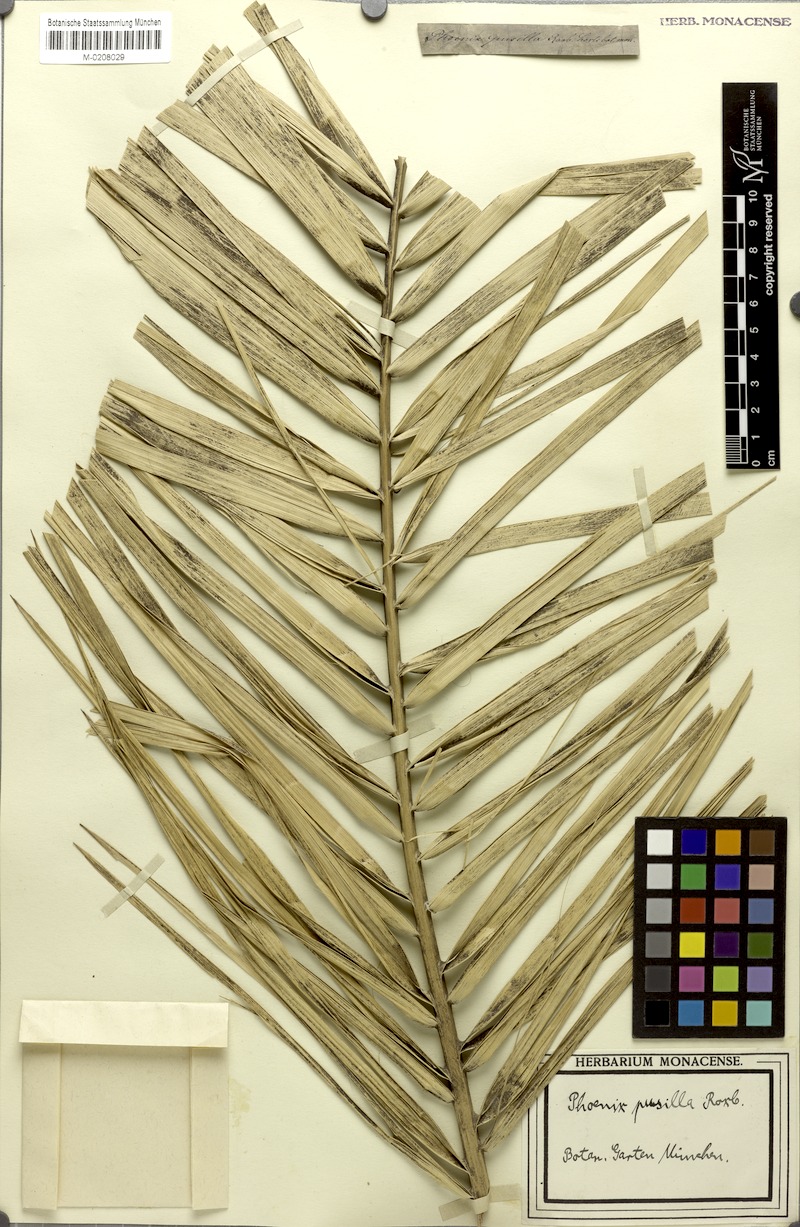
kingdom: Plantae
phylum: Tracheophyta
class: Liliopsida
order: Arecales
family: Arecaceae
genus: Phoenix
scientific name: Phoenix pusilla
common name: Flour palm
